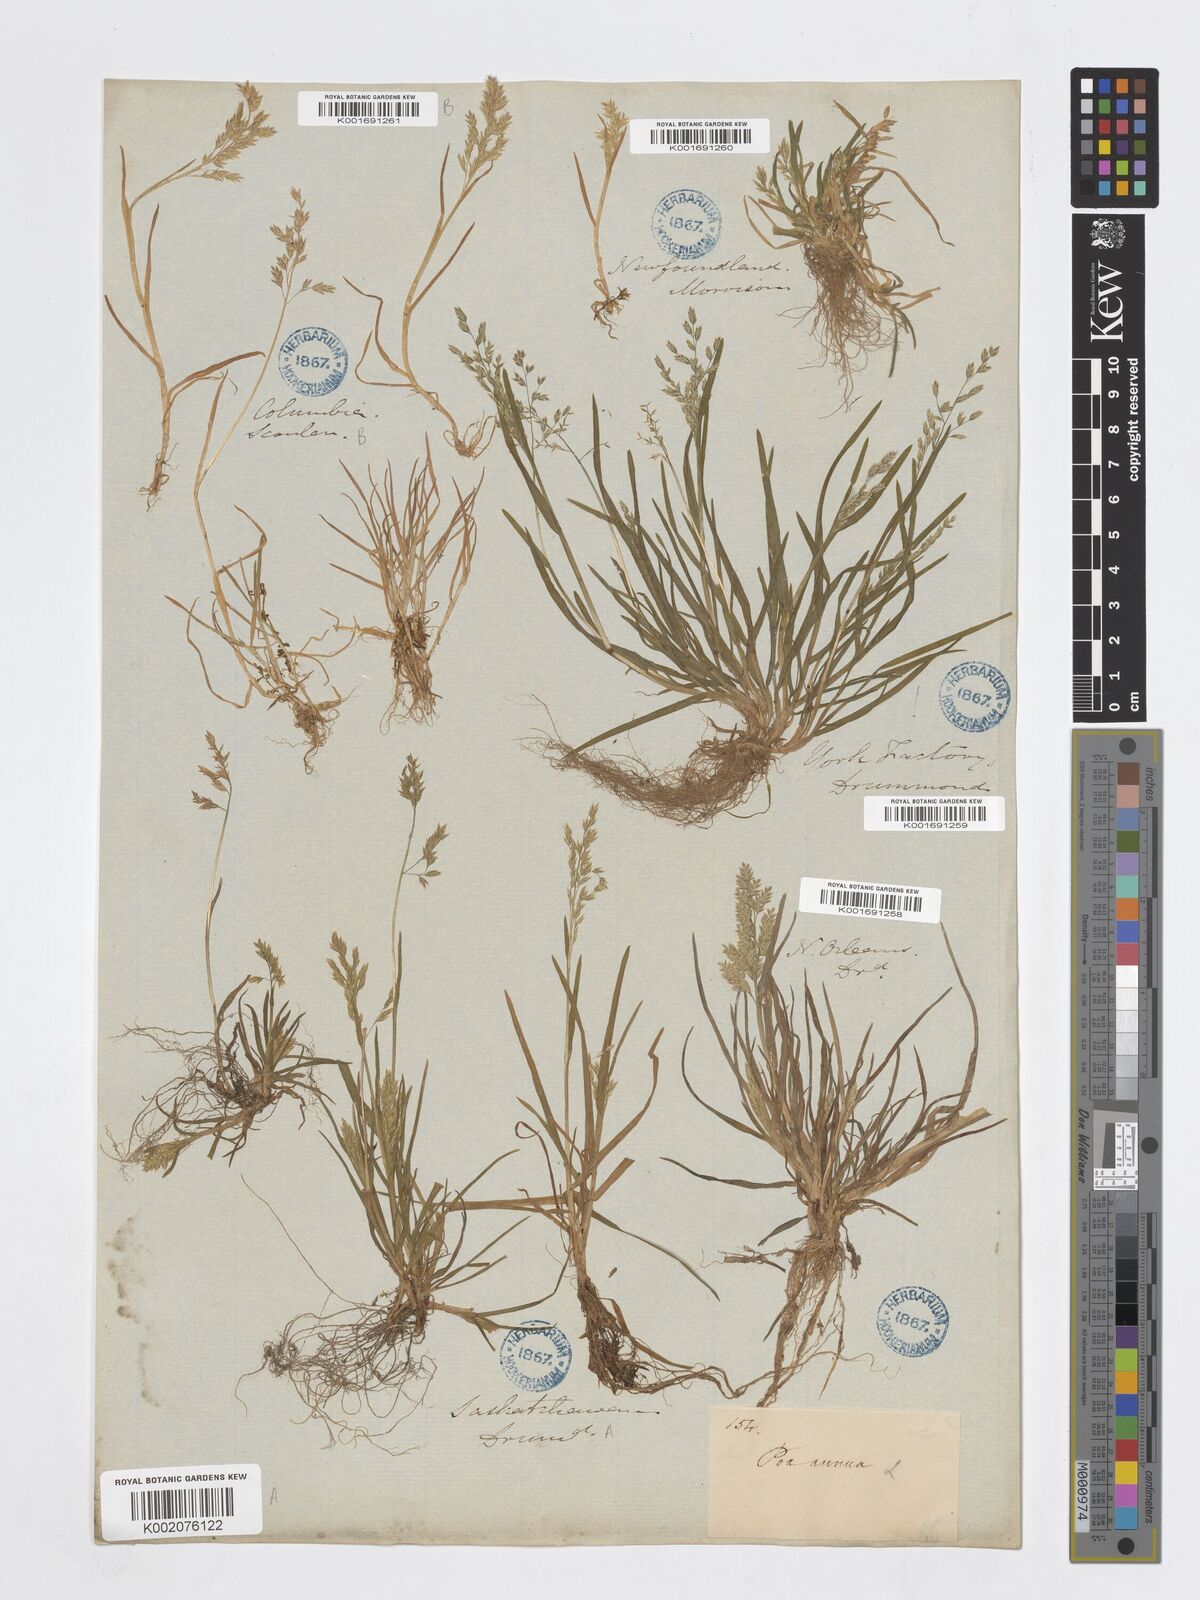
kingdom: Plantae
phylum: Tracheophyta
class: Liliopsida
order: Poales
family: Poaceae
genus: Poa
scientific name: Poa annua
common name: Annual bluegrass
